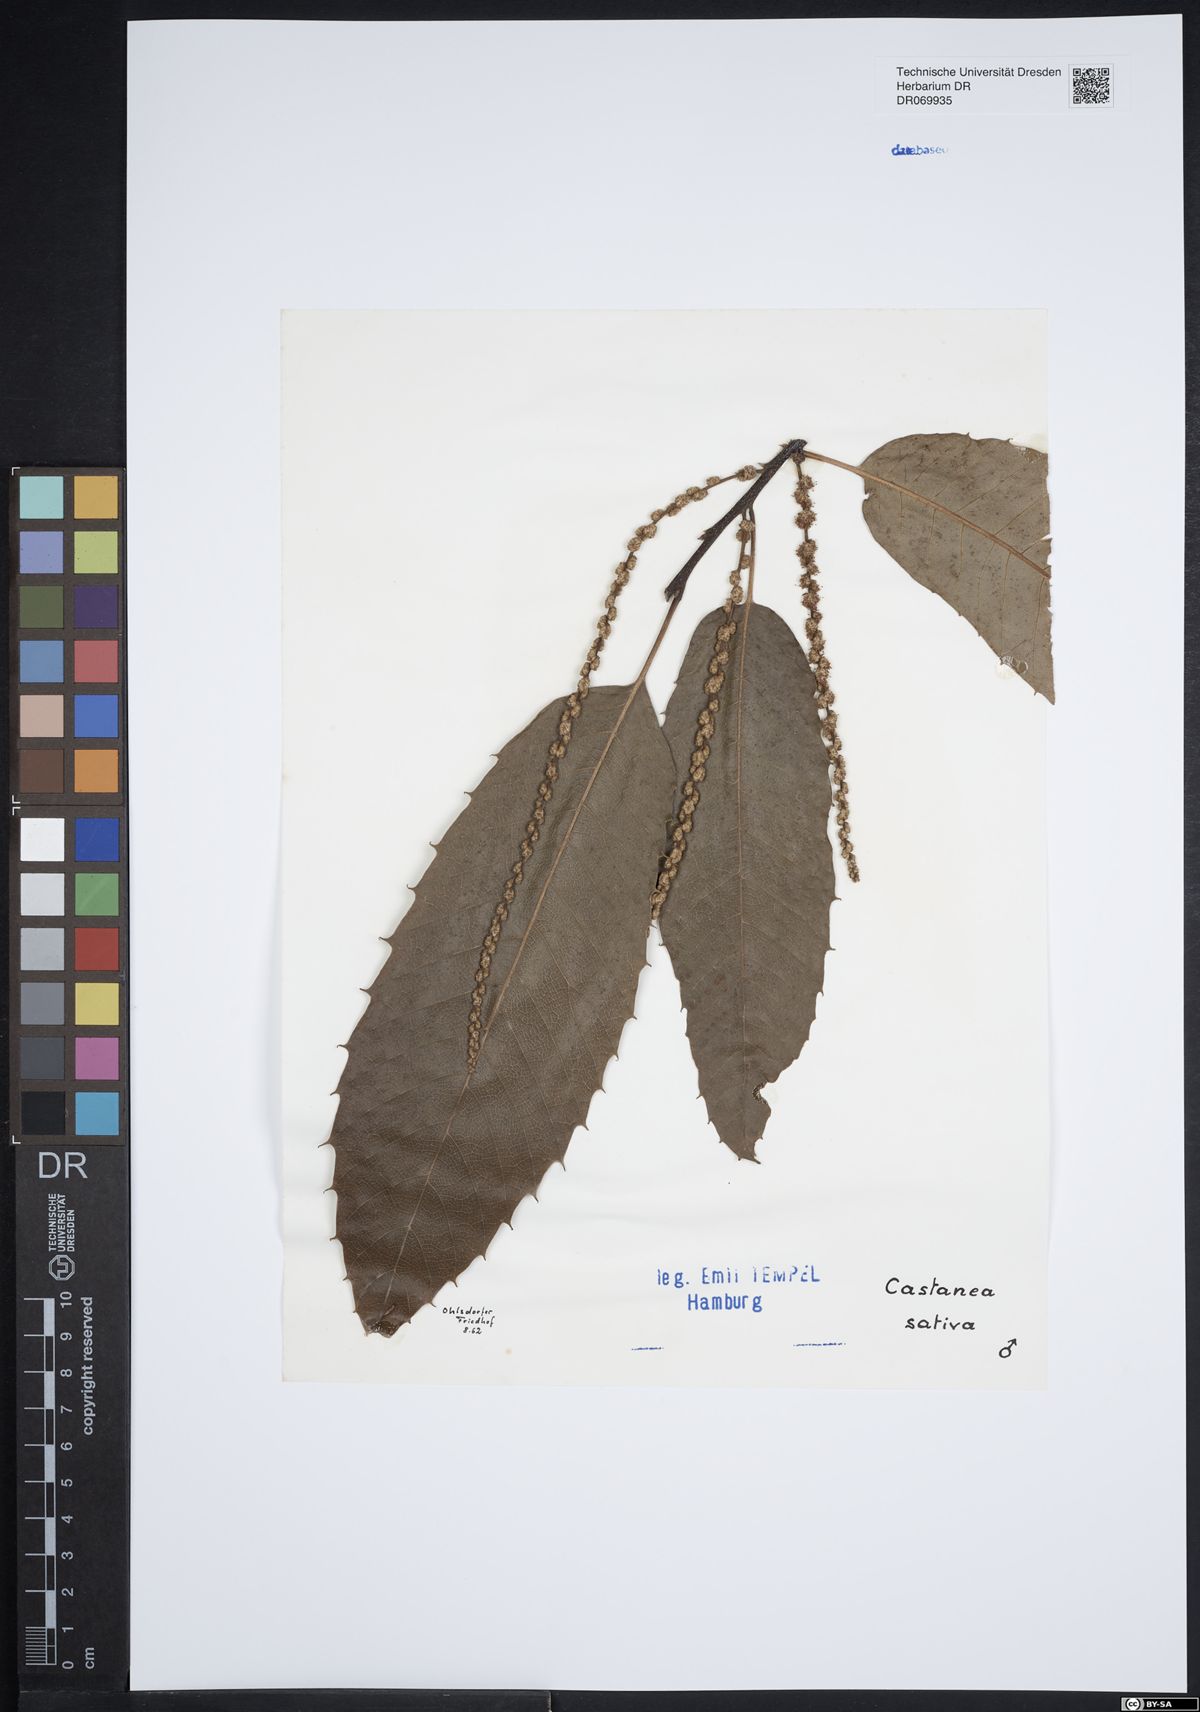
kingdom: Plantae
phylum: Tracheophyta
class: Magnoliopsida
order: Fagales
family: Fagaceae
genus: Castanea
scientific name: Castanea sativa
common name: Sweet chestnut
